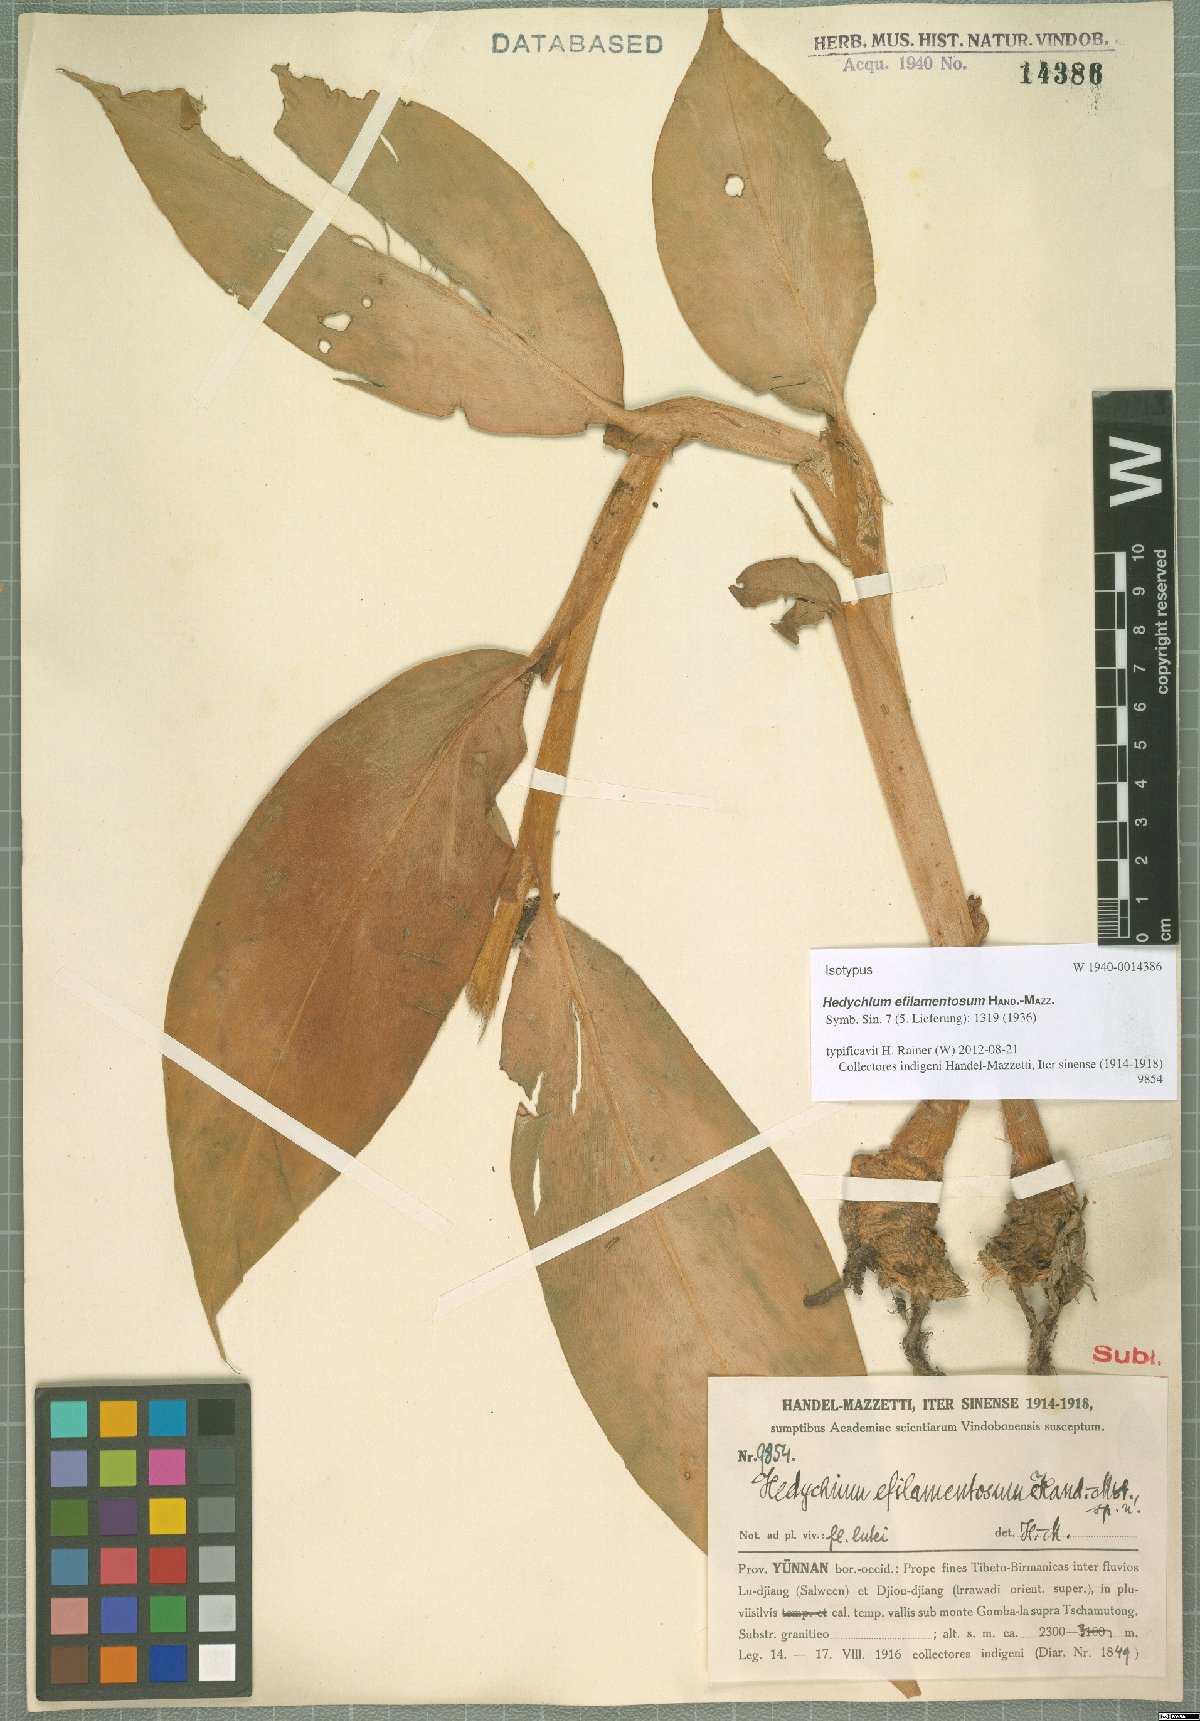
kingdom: Plantae
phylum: Tracheophyta
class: Liliopsida
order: Zingiberales
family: Zingiberaceae
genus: Hedychium
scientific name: Hedychium efilamentosum
